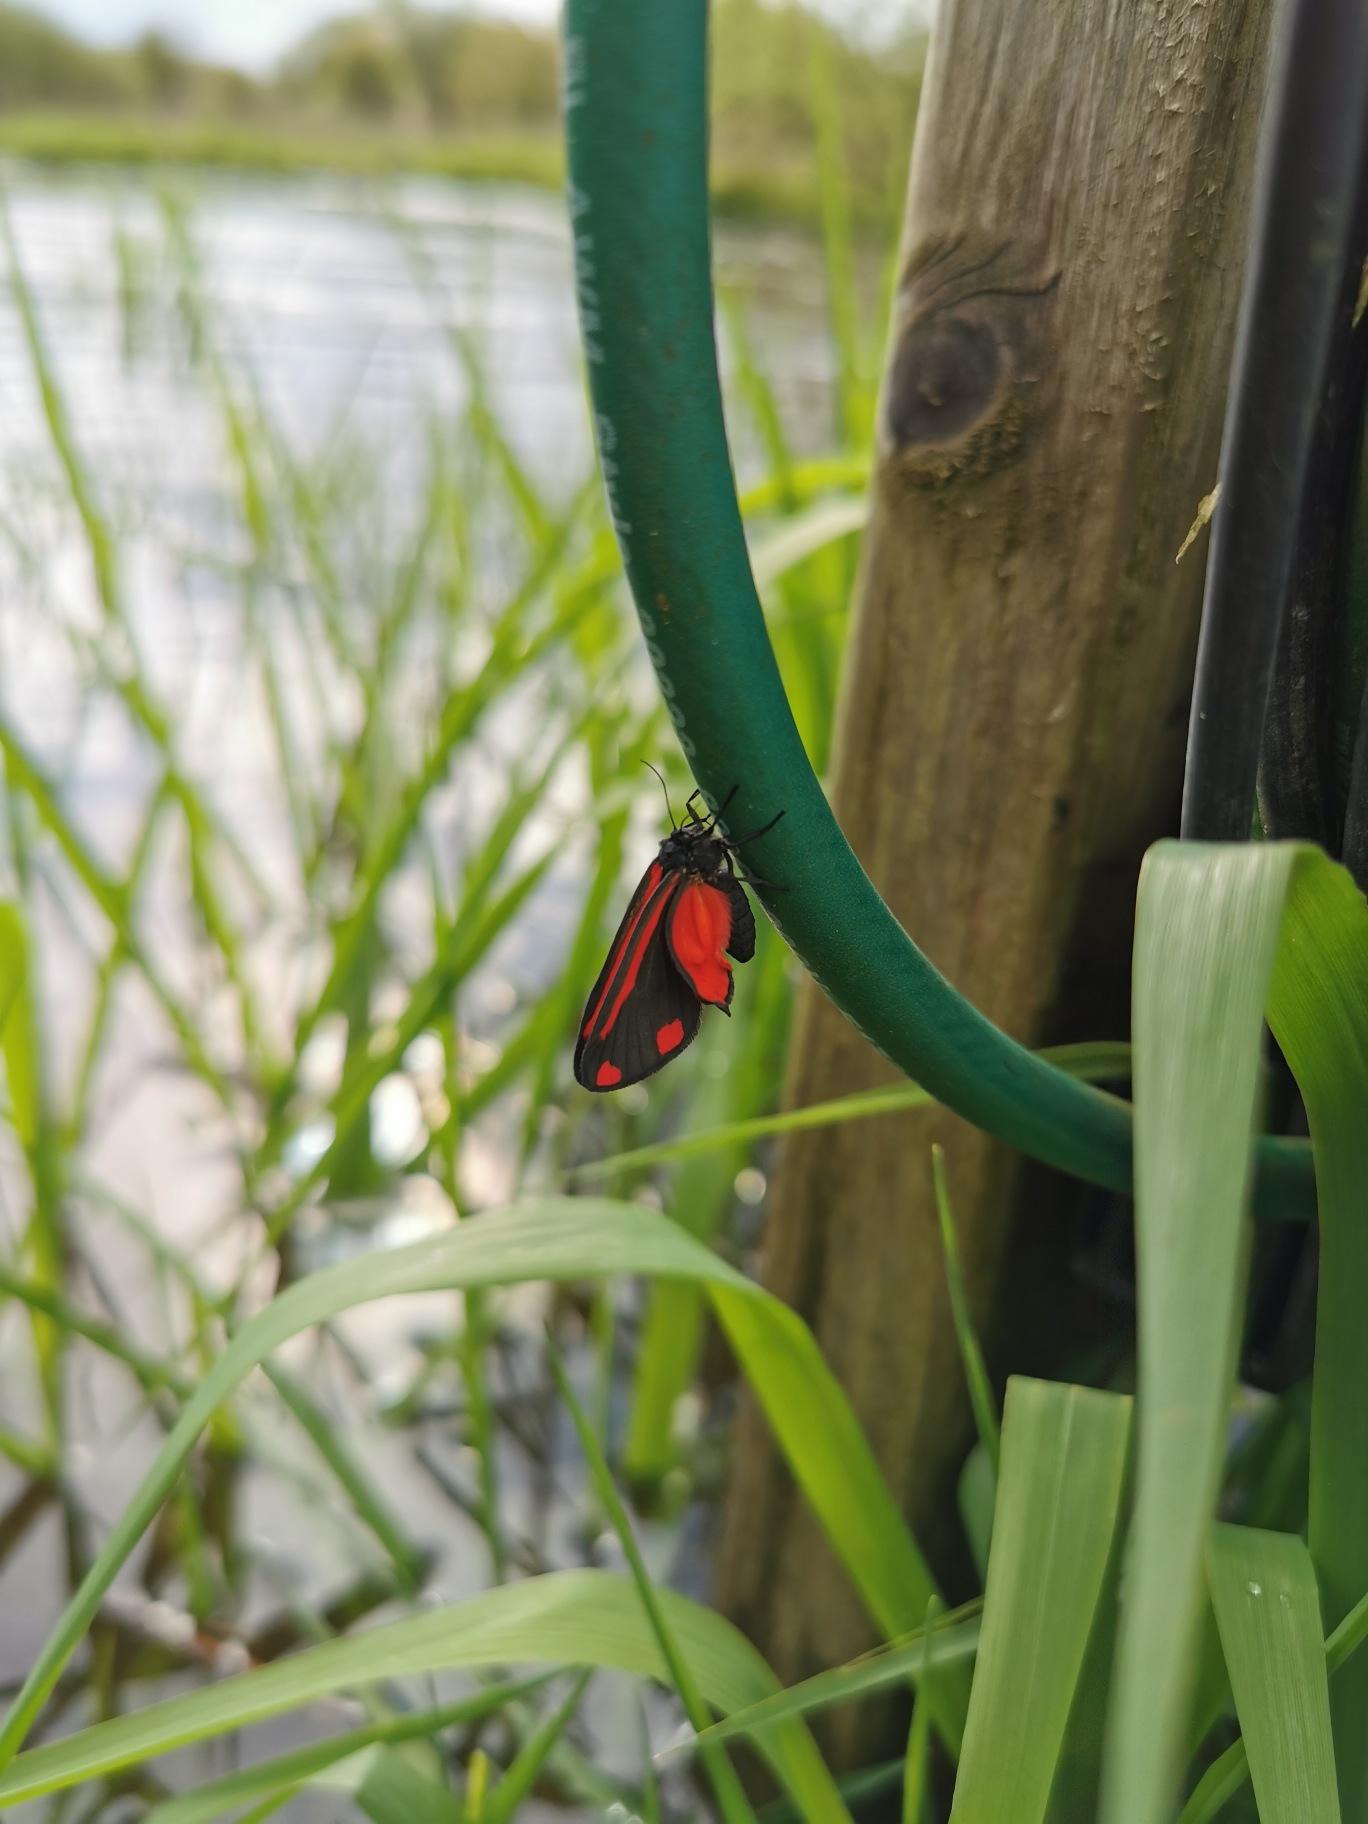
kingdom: Animalia
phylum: Arthropoda
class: Insecta
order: Lepidoptera
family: Erebidae
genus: Tyria
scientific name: Tyria jacobaeae
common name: Blodplet
